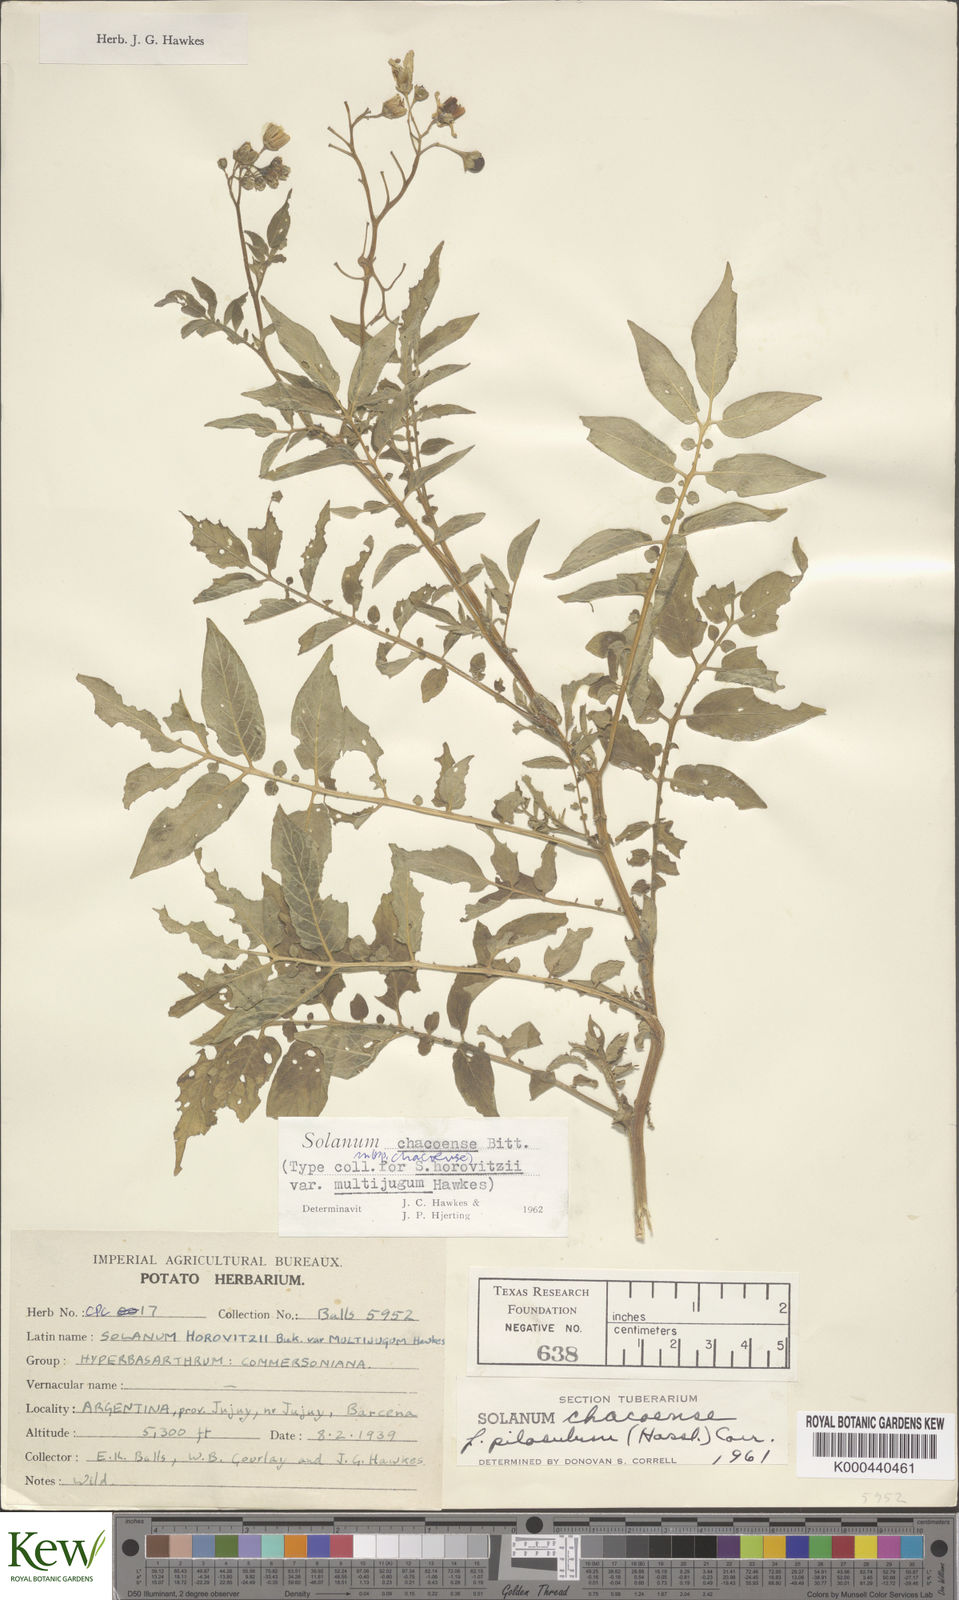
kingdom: Plantae
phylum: Tracheophyta
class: Magnoliopsida
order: Solanales
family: Solanaceae
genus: Solanum
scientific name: Solanum chacoense
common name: Chaco potato
